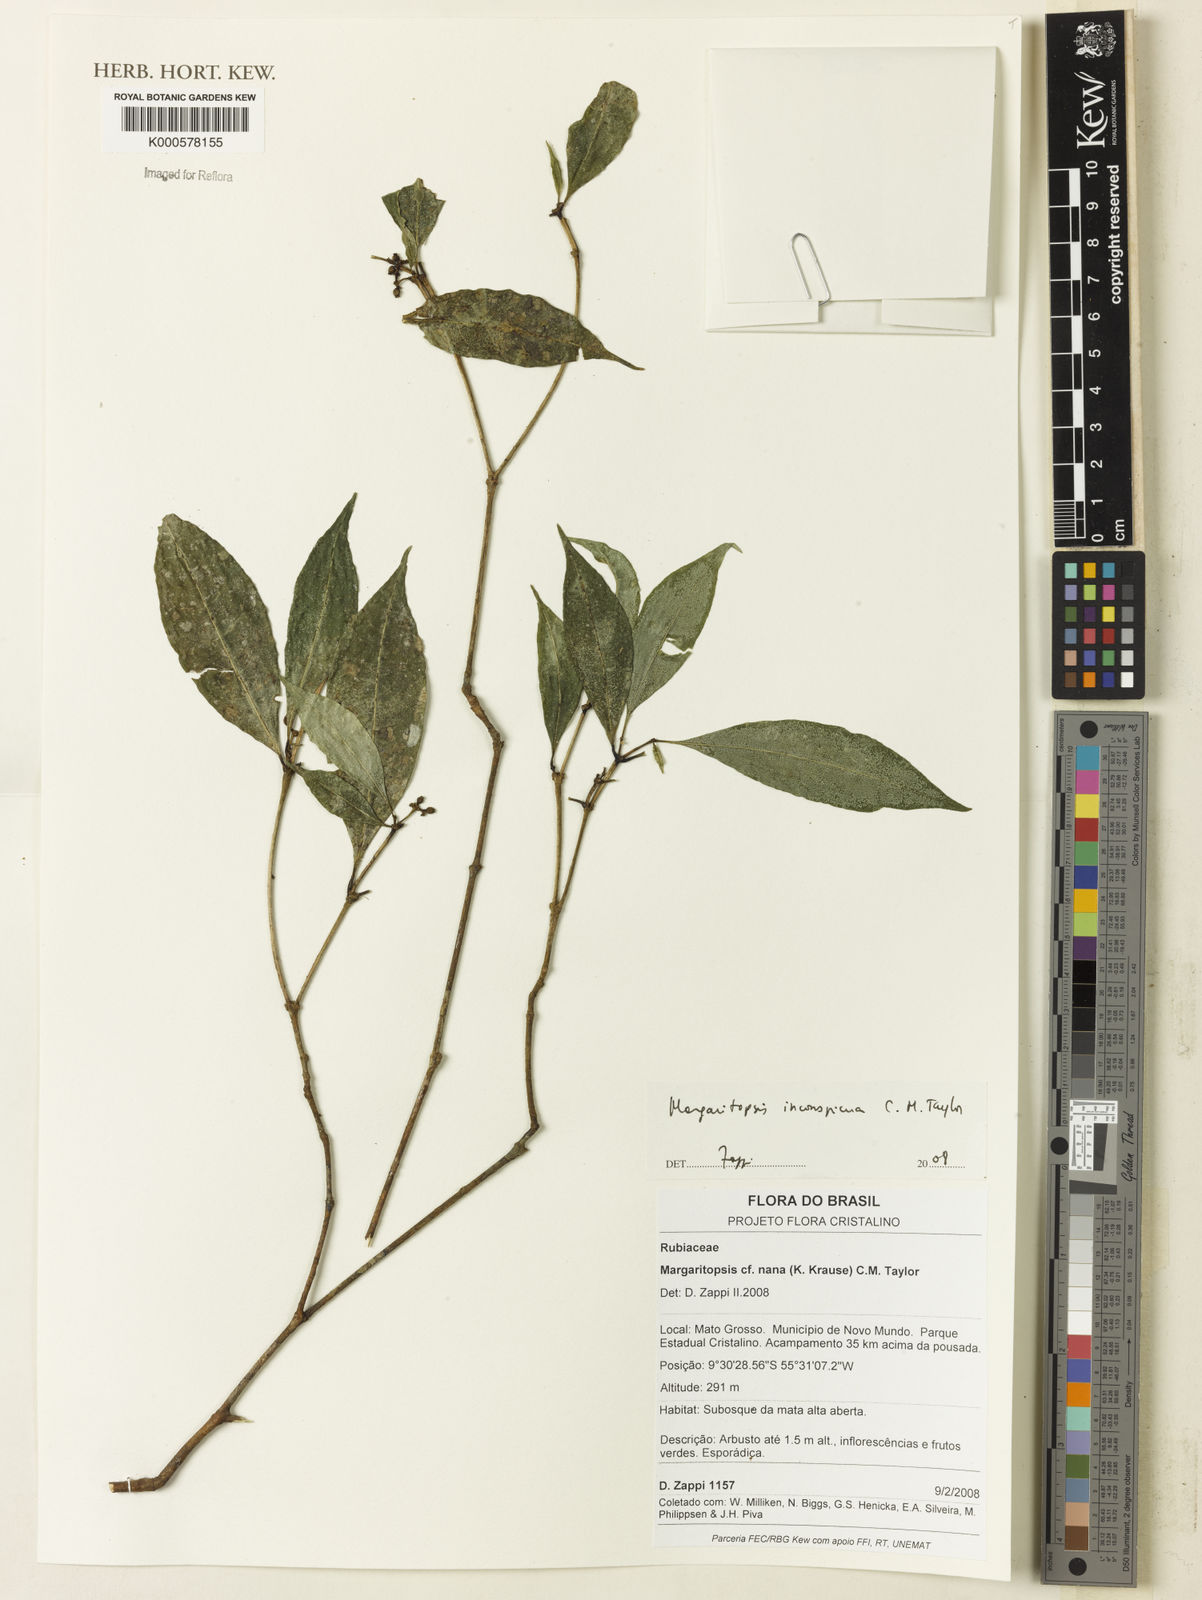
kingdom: Plantae
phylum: Tracheophyta
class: Magnoliopsida
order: Gentianales
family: Rubiaceae
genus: Eumachia
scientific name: Eumachia nana
